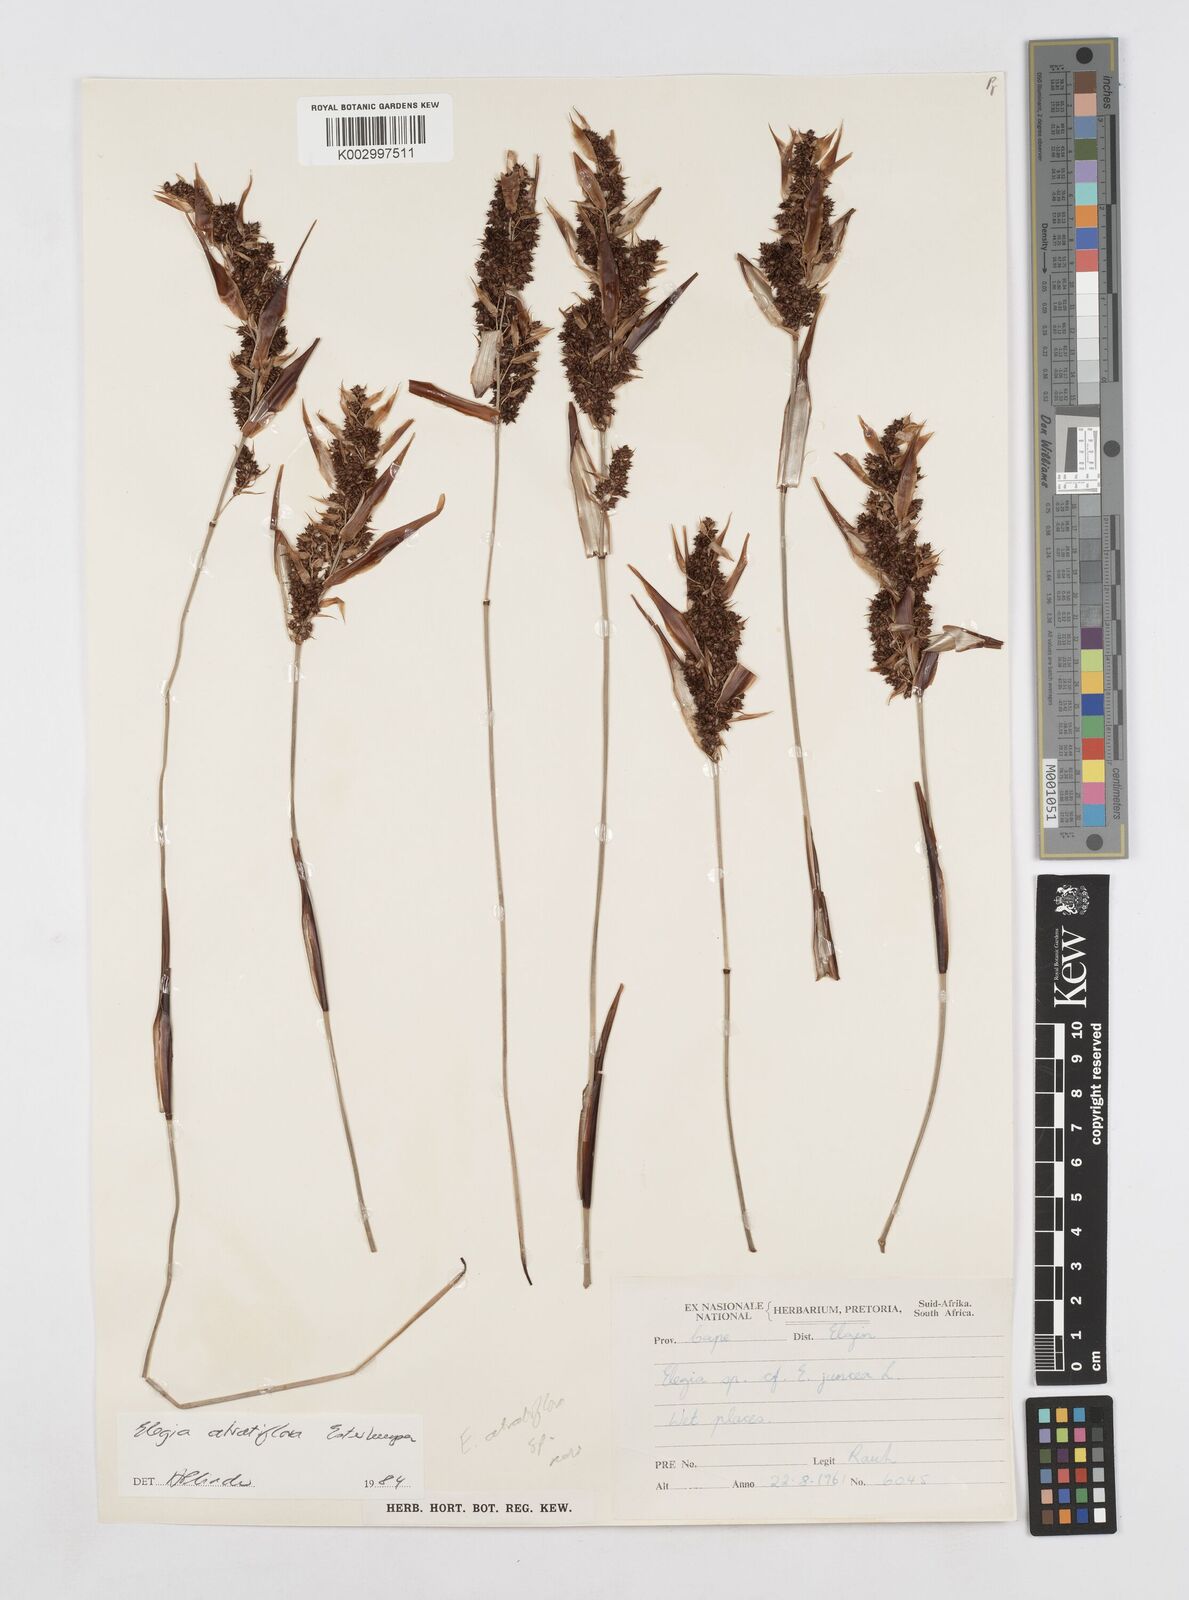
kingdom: Plantae
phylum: Tracheophyta
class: Liliopsida
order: Poales
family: Restionaceae
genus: Elegia
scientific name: Elegia atratiflora
